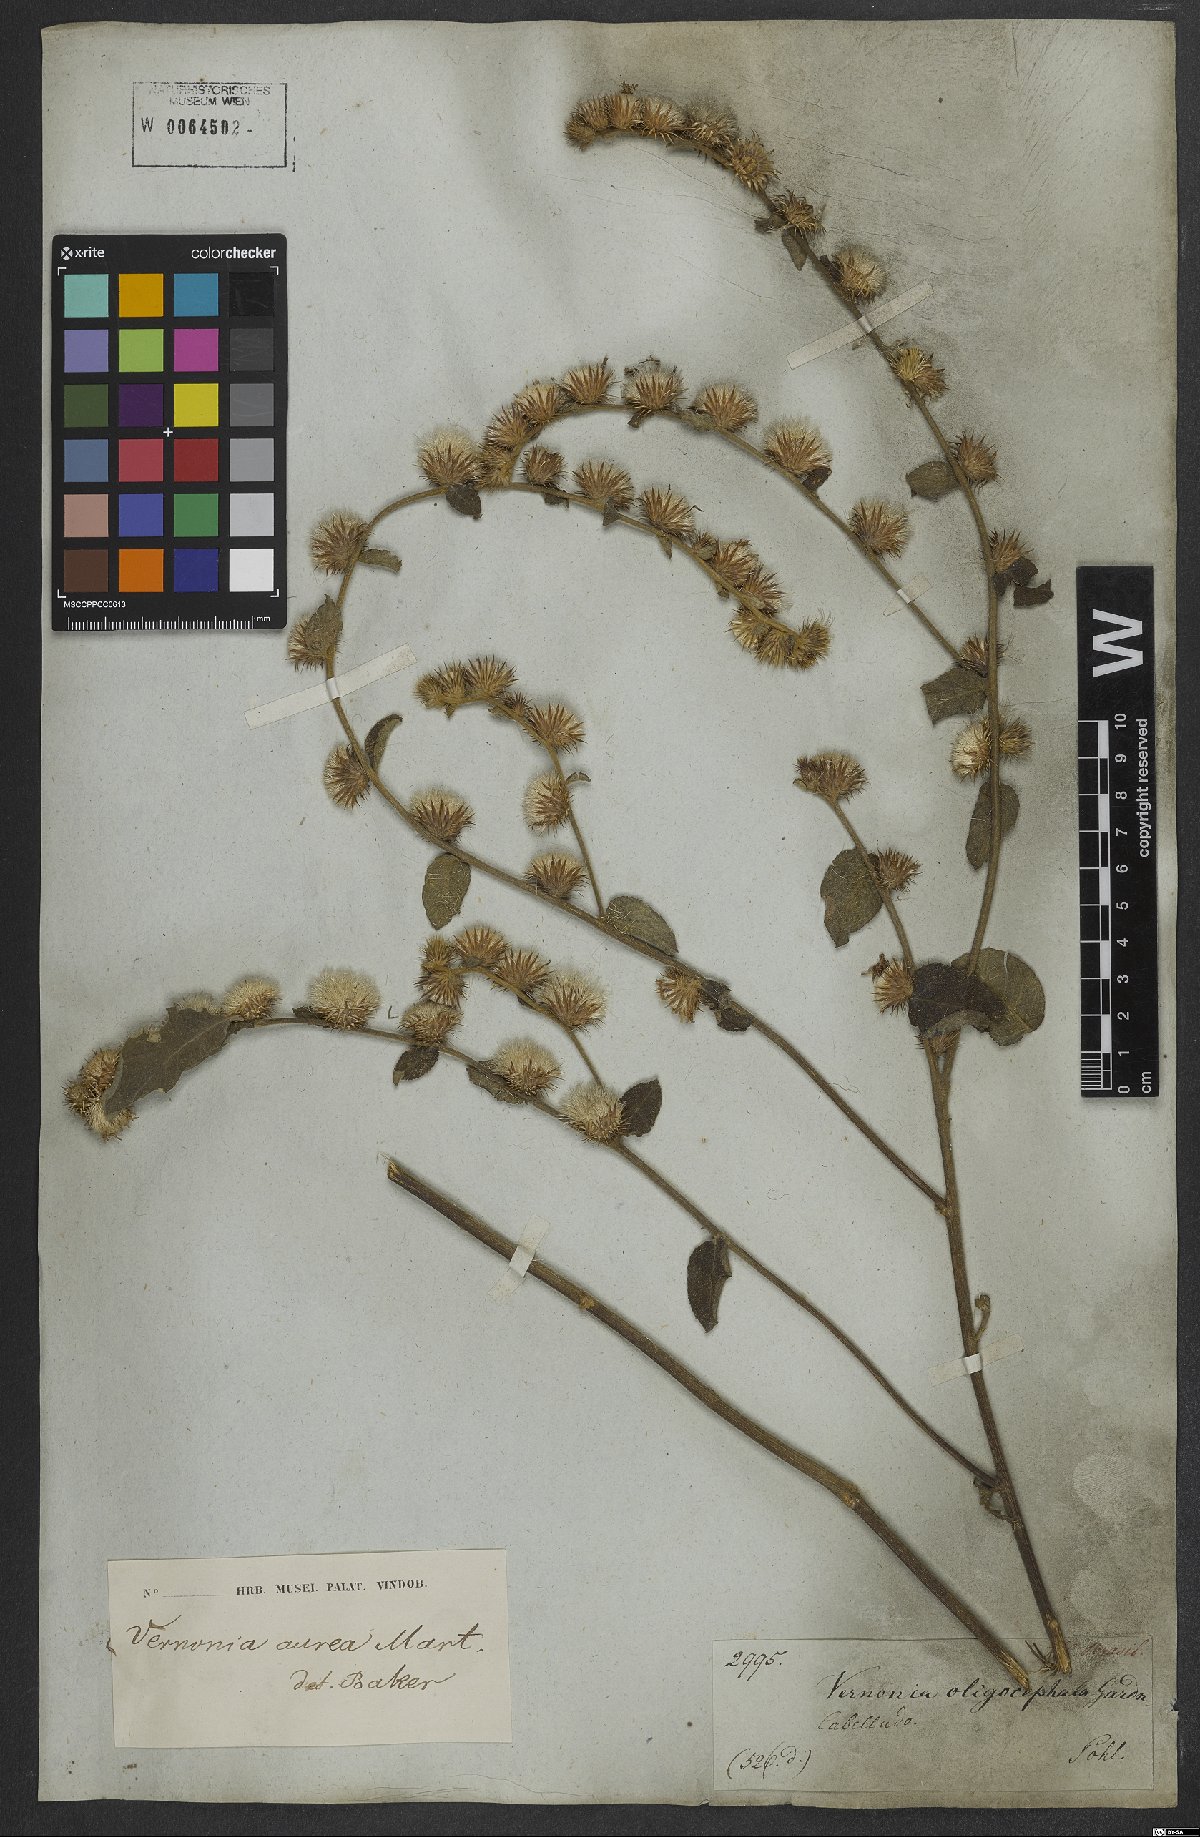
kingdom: Plantae
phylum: Tracheophyta
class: Magnoliopsida
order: Asterales
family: Asteraceae
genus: Lepidaploa
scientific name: Lepidaploa aurea
